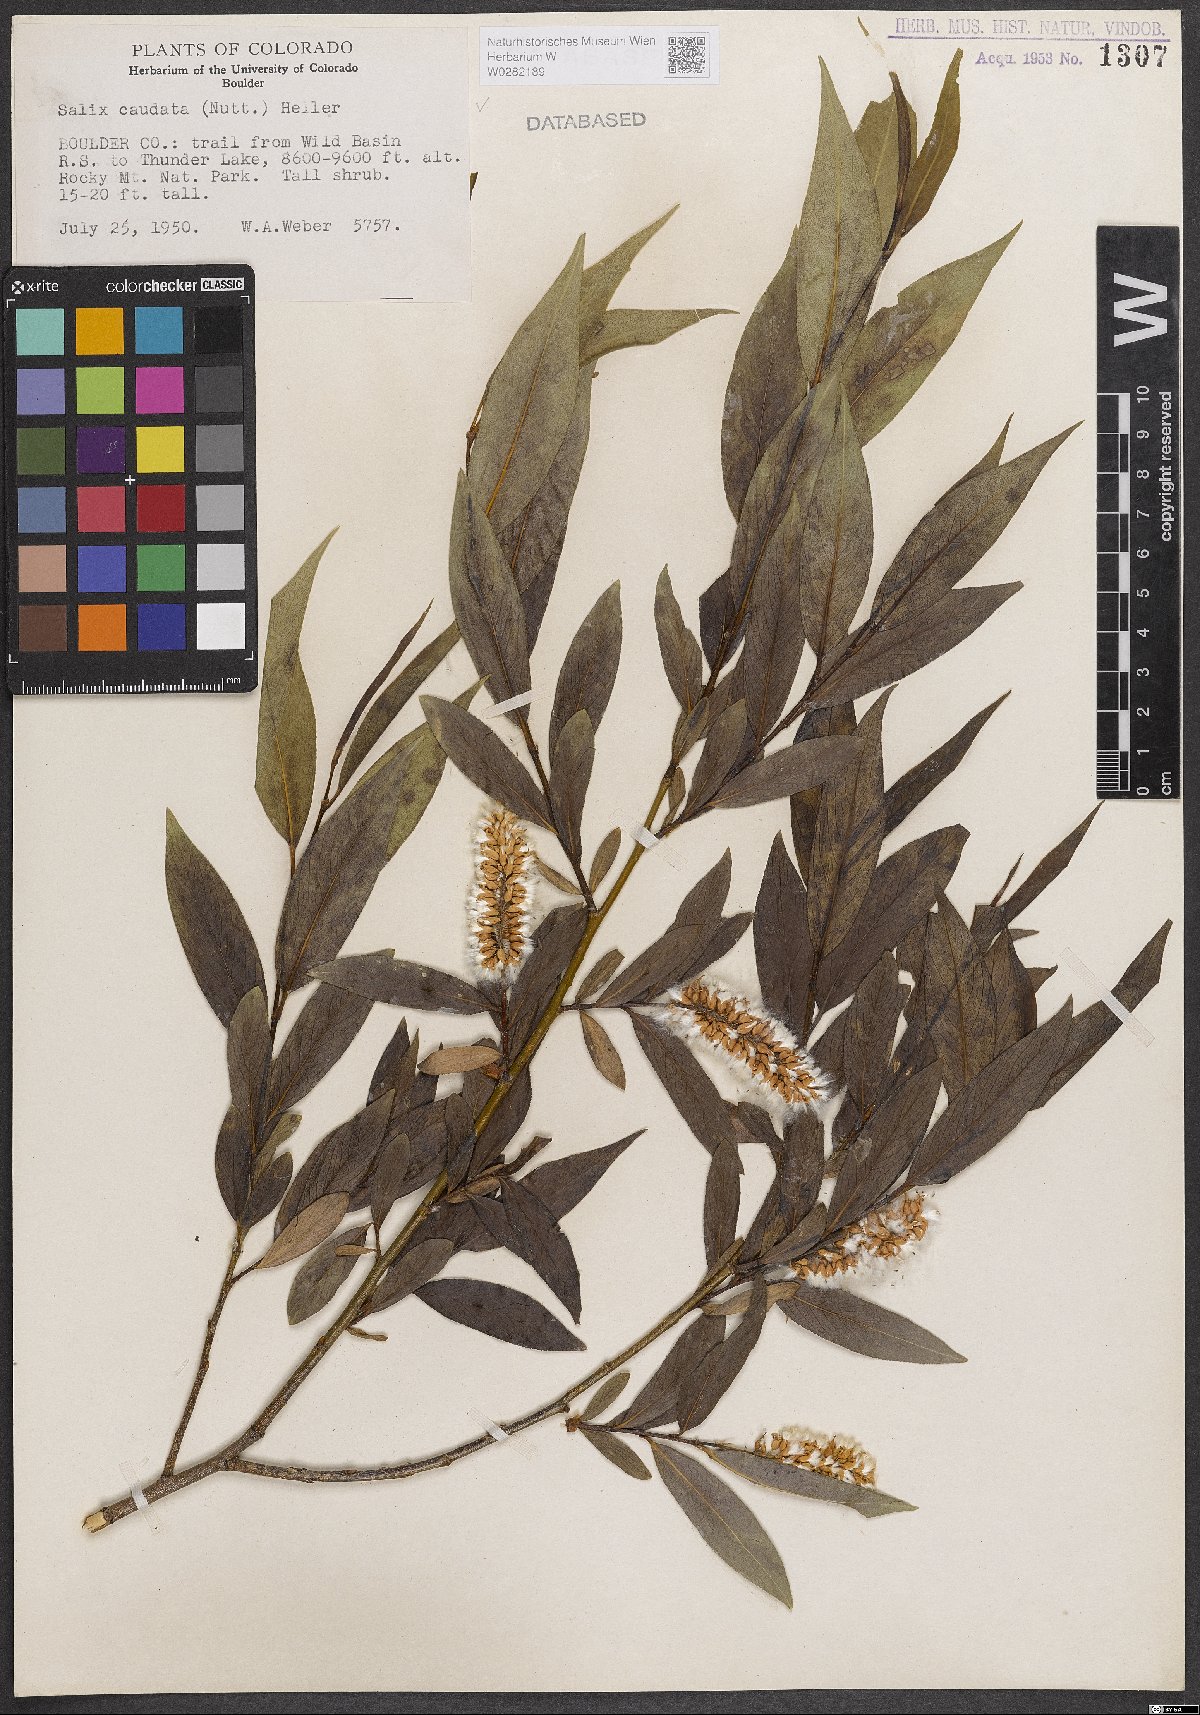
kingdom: Plantae
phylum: Tracheophyta
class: Magnoliopsida
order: Malpighiales
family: Salicaceae
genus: Salix
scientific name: Salix lucida
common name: Shining willow
